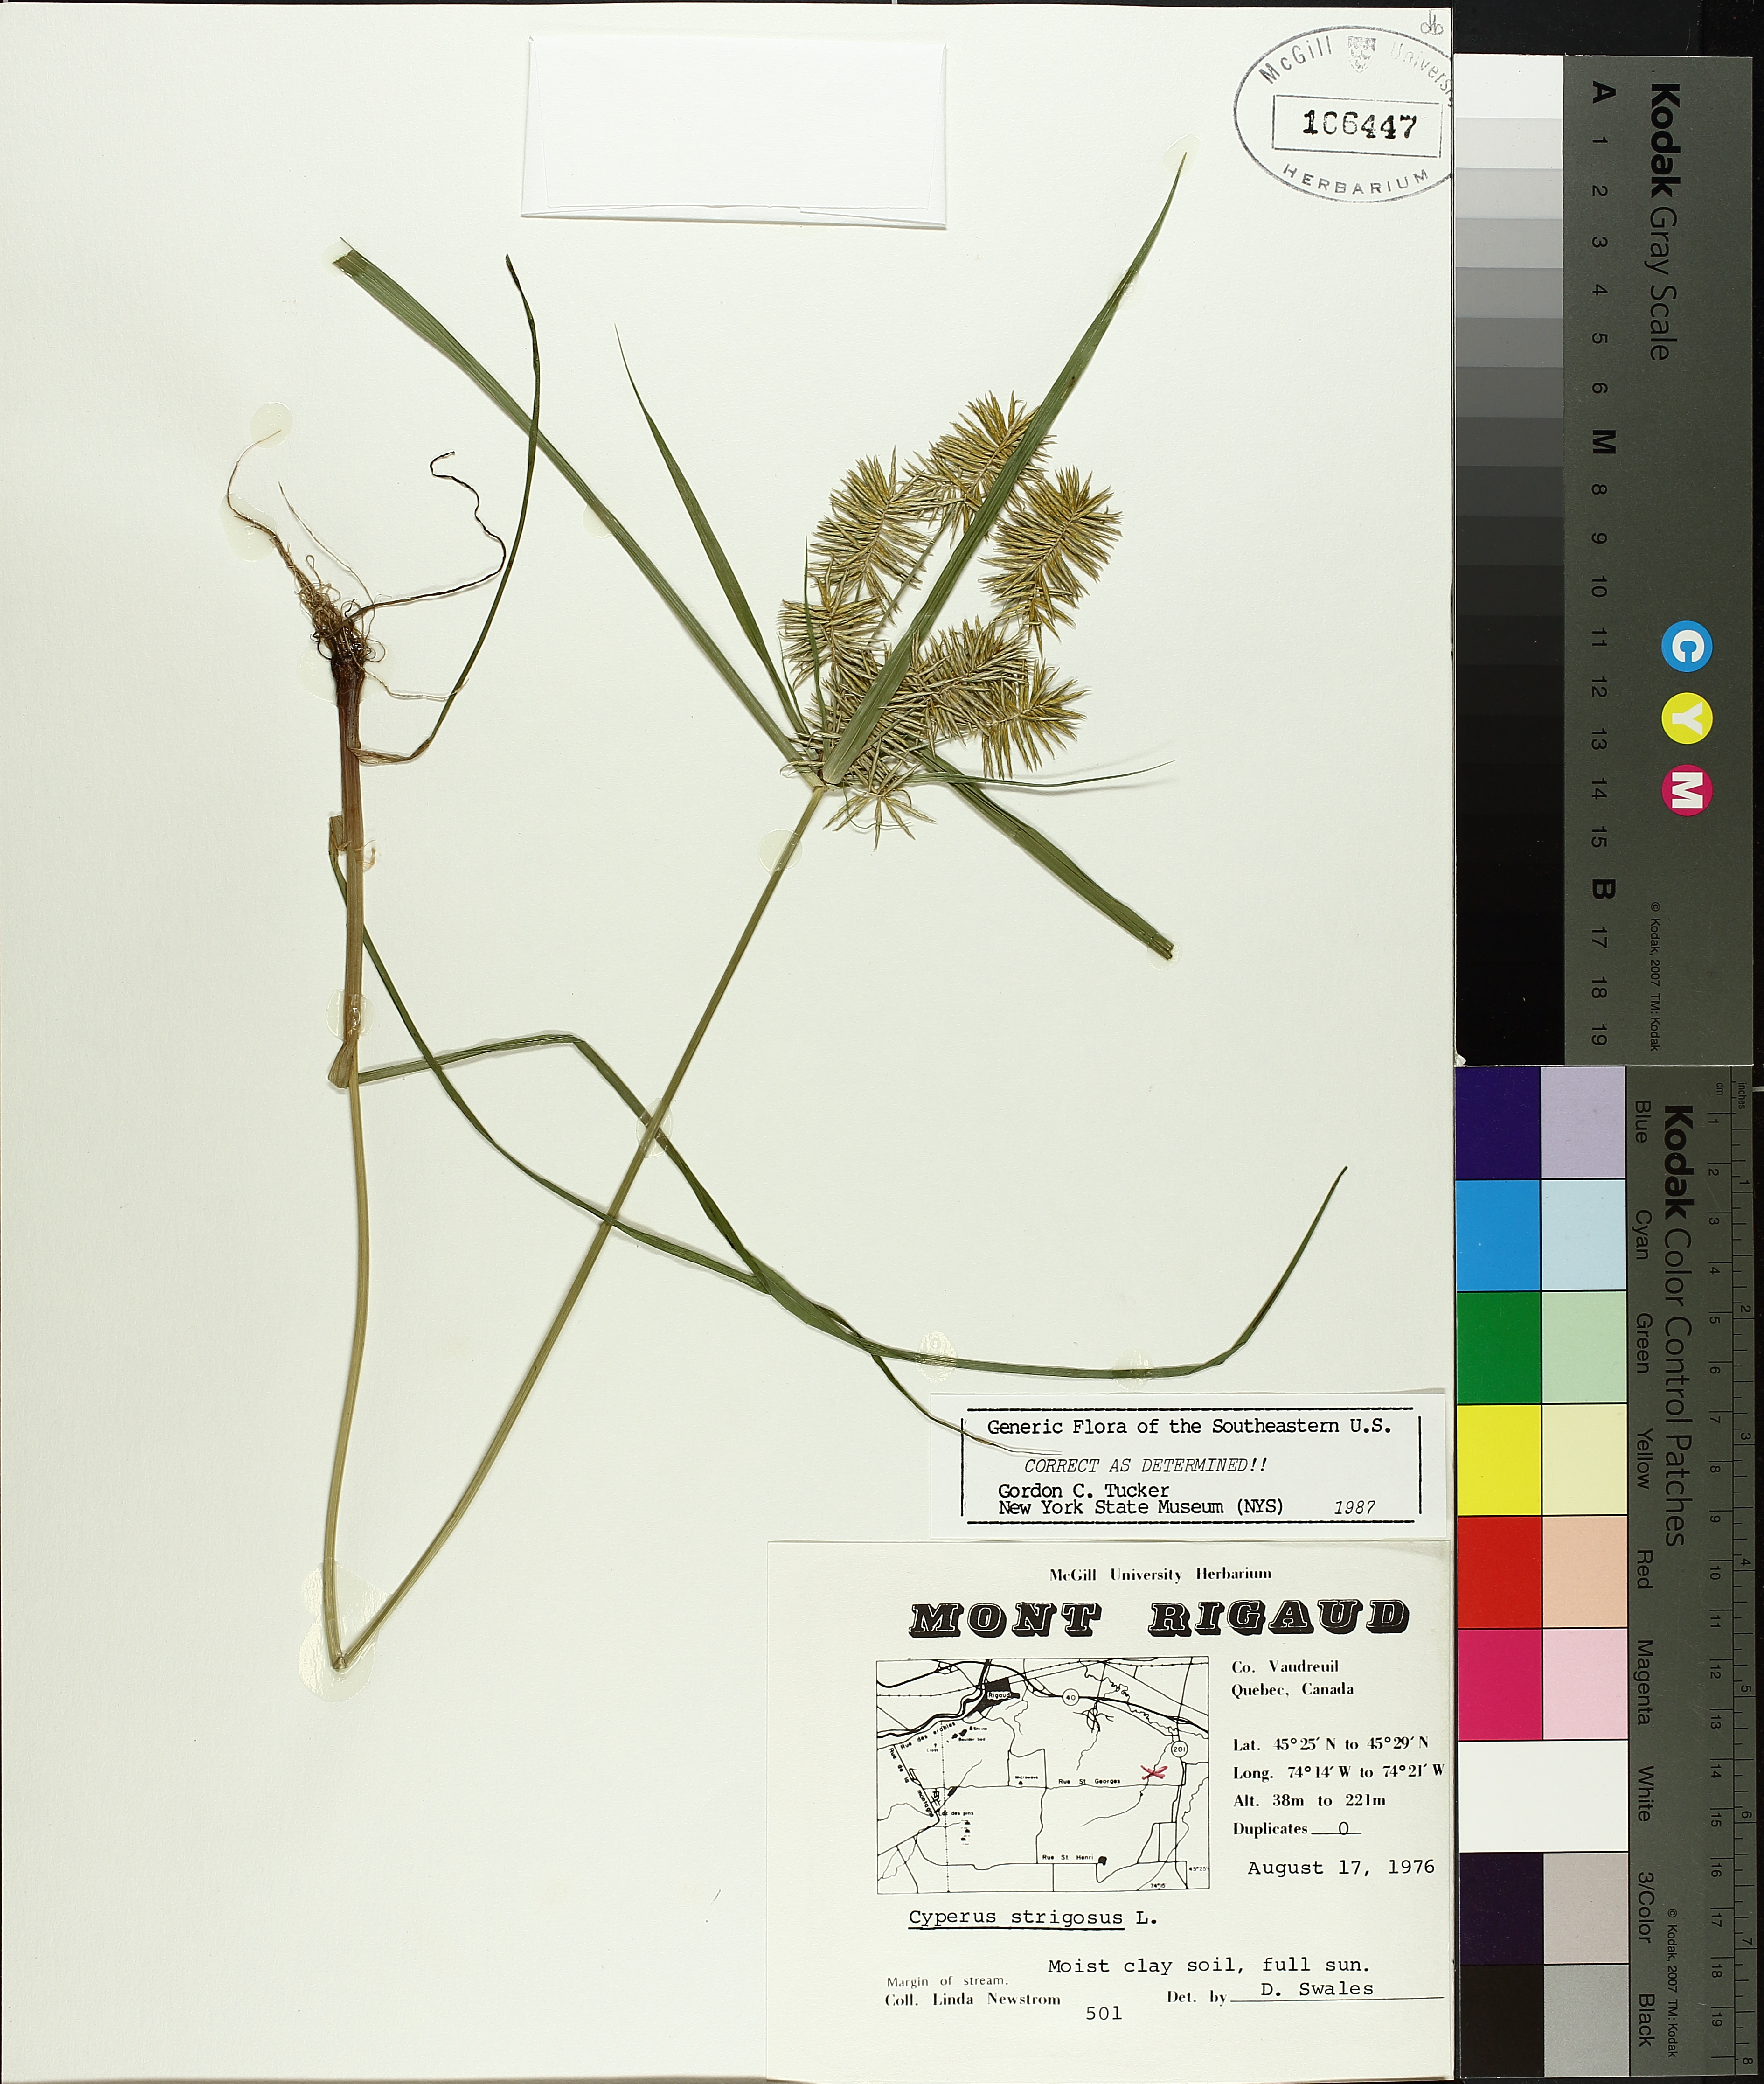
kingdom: Plantae
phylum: Tracheophyta
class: Liliopsida
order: Poales
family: Cyperaceae
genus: Cyperus
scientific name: Cyperus strigosus
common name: False nutsedge
